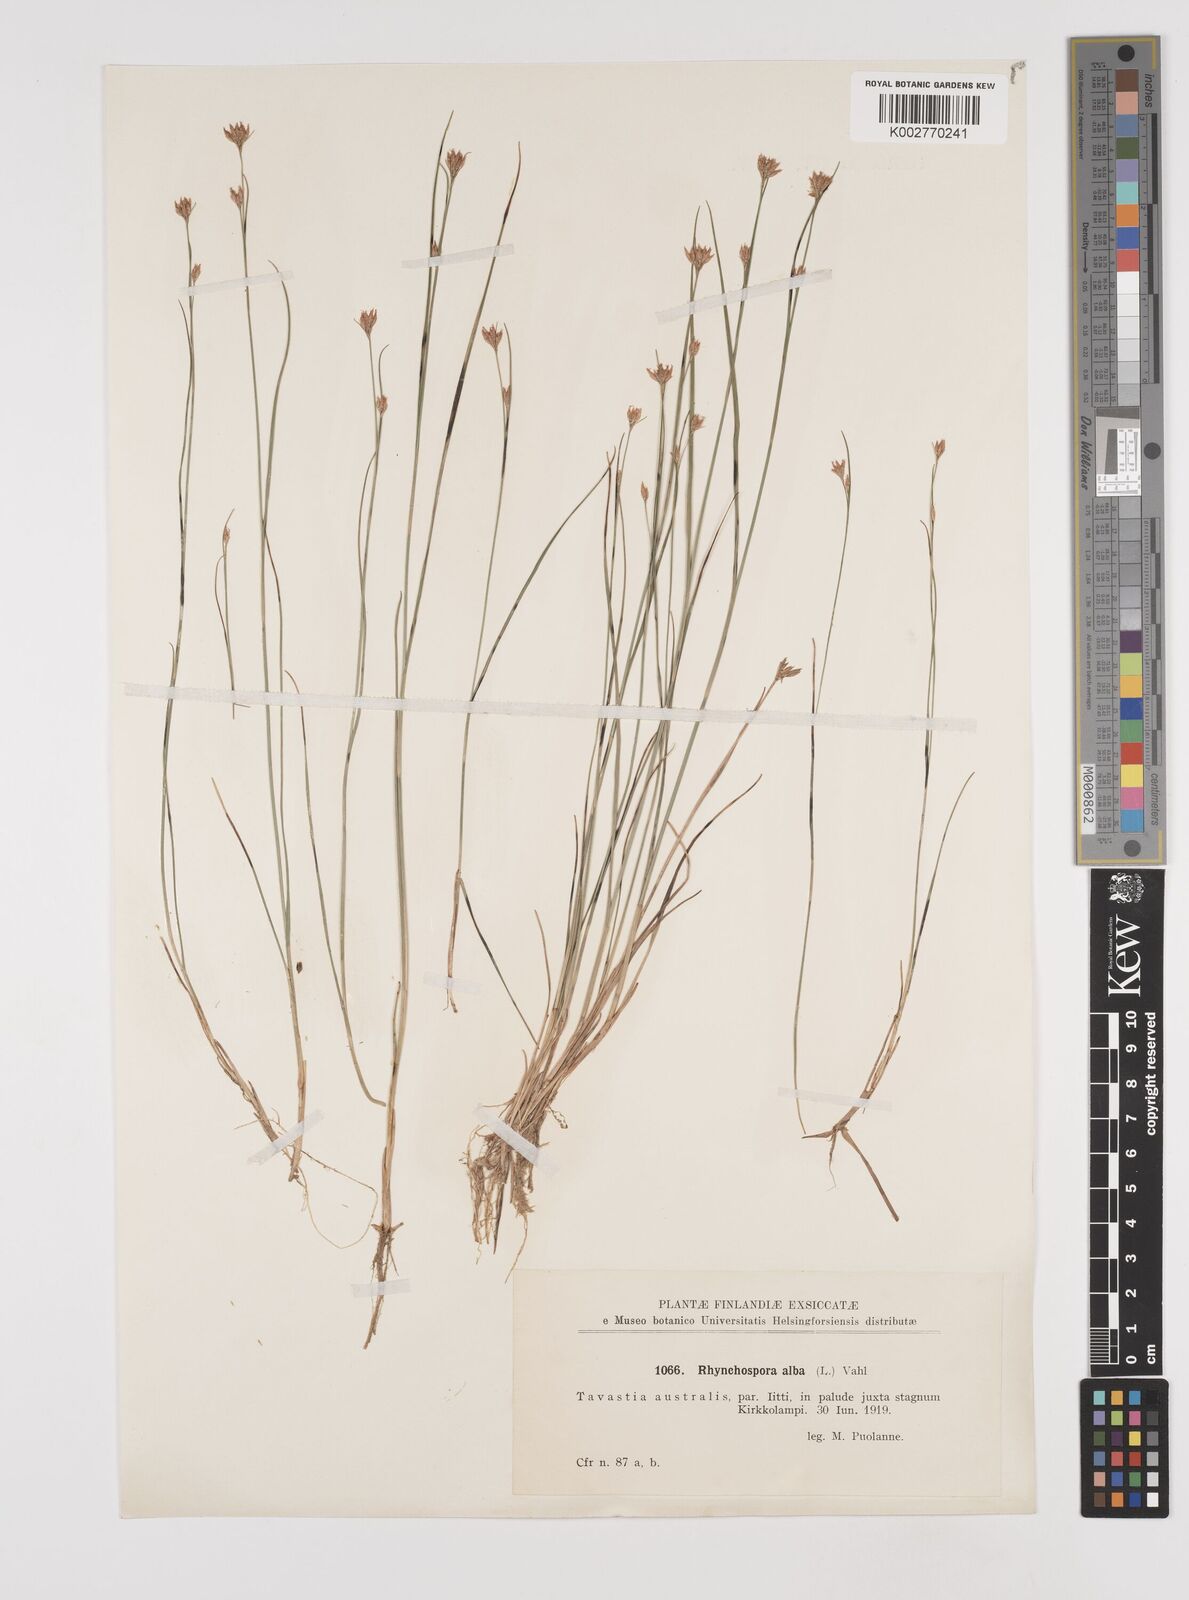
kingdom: Plantae
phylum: Tracheophyta
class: Liliopsida
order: Poales
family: Cyperaceae
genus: Rhynchospora
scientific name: Rhynchospora alba
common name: White beak-sedge
